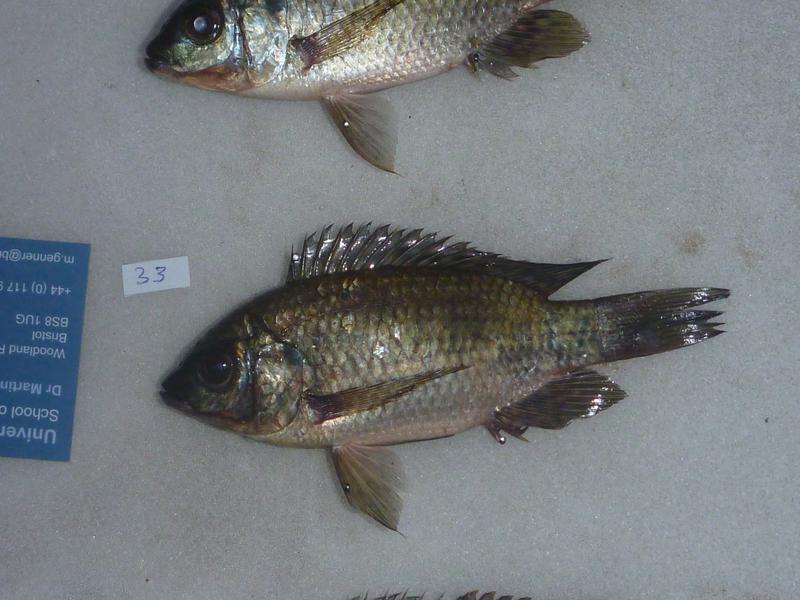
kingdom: Animalia
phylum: Chordata
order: Perciformes
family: Cichlidae
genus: Oreochromis
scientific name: Oreochromis leucostictus
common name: Blue spotted tilapia
